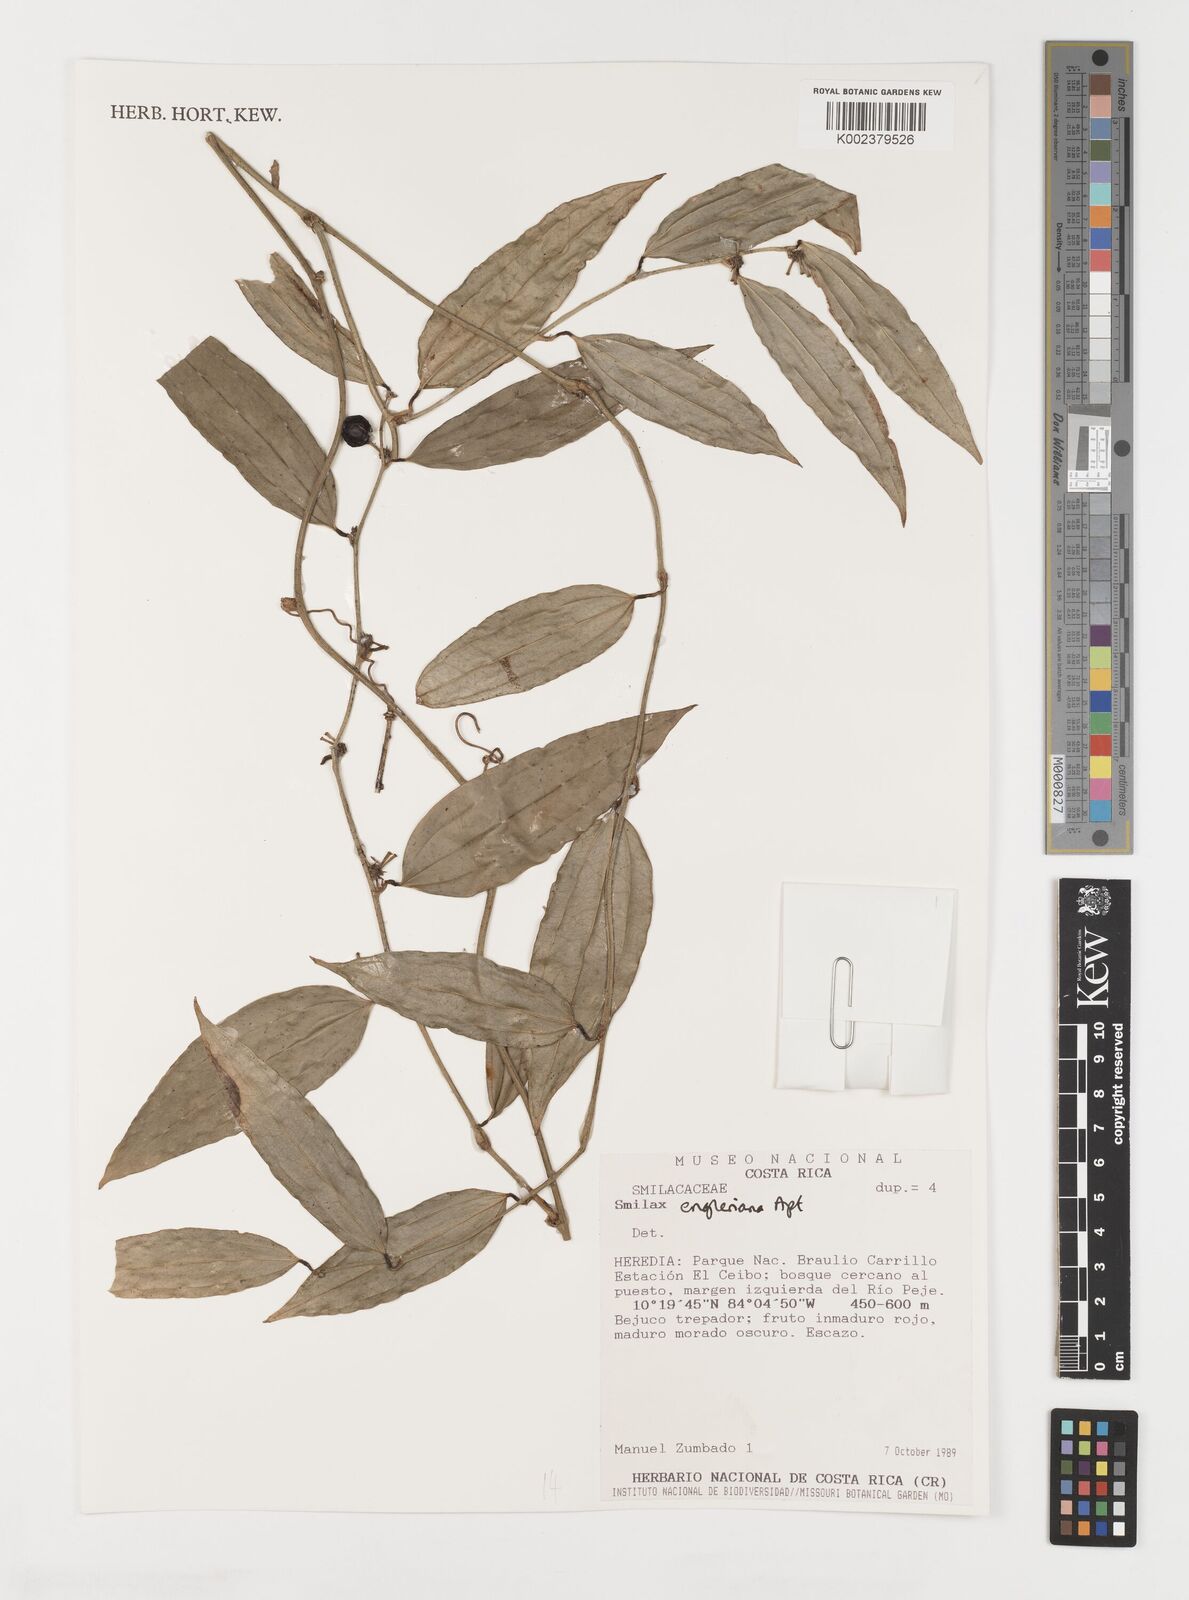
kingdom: Plantae
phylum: Tracheophyta
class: Liliopsida
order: Liliales
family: Smilacaceae
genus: Smilax
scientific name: Smilax domingensis
